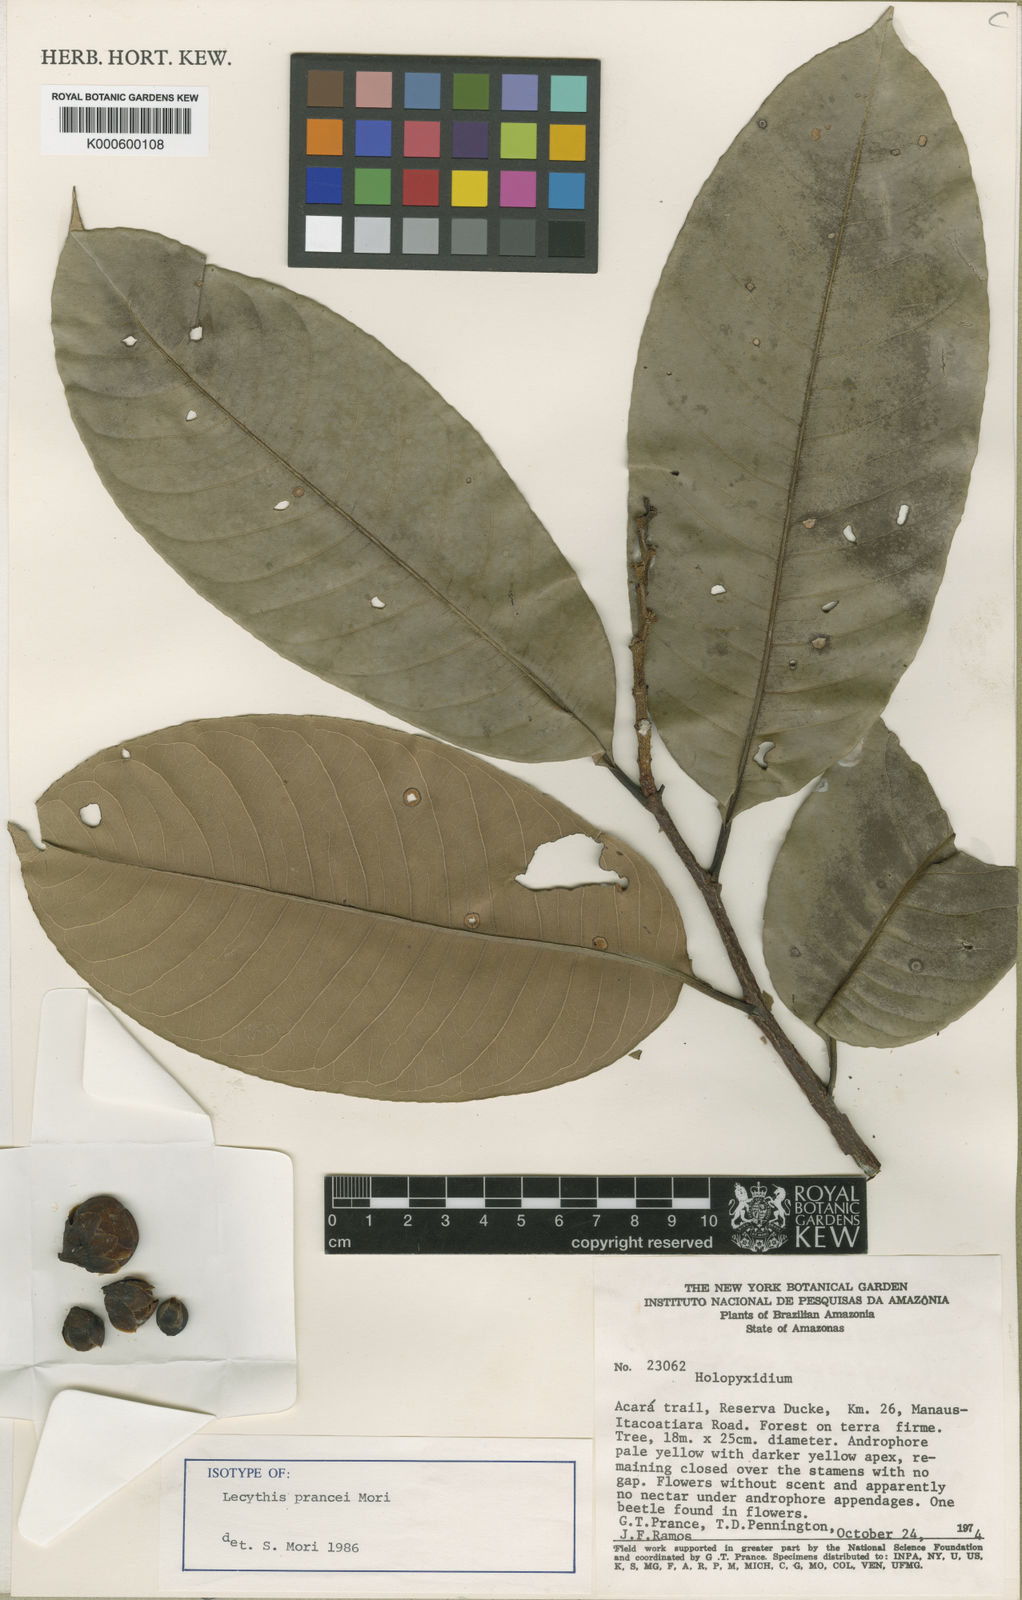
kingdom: Plantae
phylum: Tracheophyta
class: Magnoliopsida
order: Ericales
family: Lecythidaceae
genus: Lecythis
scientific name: Lecythis prancei
